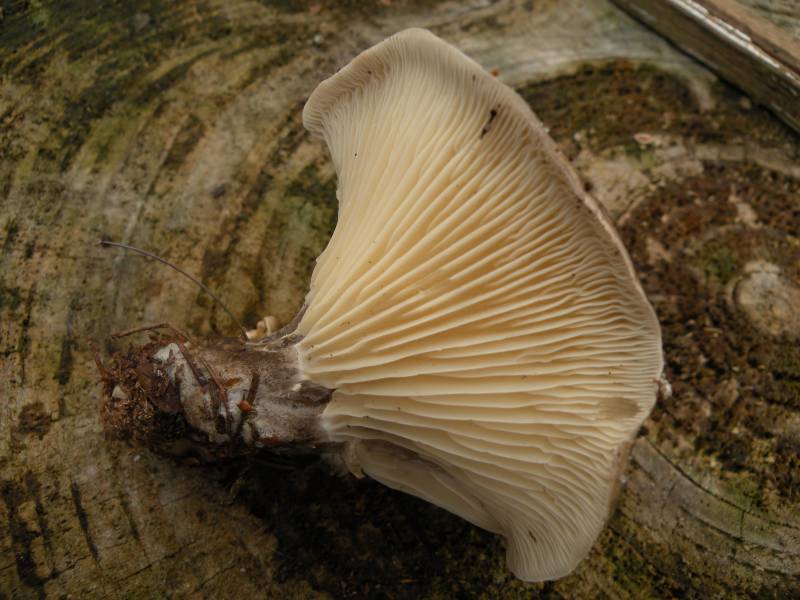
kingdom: Fungi
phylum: Basidiomycota
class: Agaricomycetes
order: Agaricales
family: Hygrophoraceae
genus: Ampulloclitocybe
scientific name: Ampulloclitocybe clavipes
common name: køllefod
